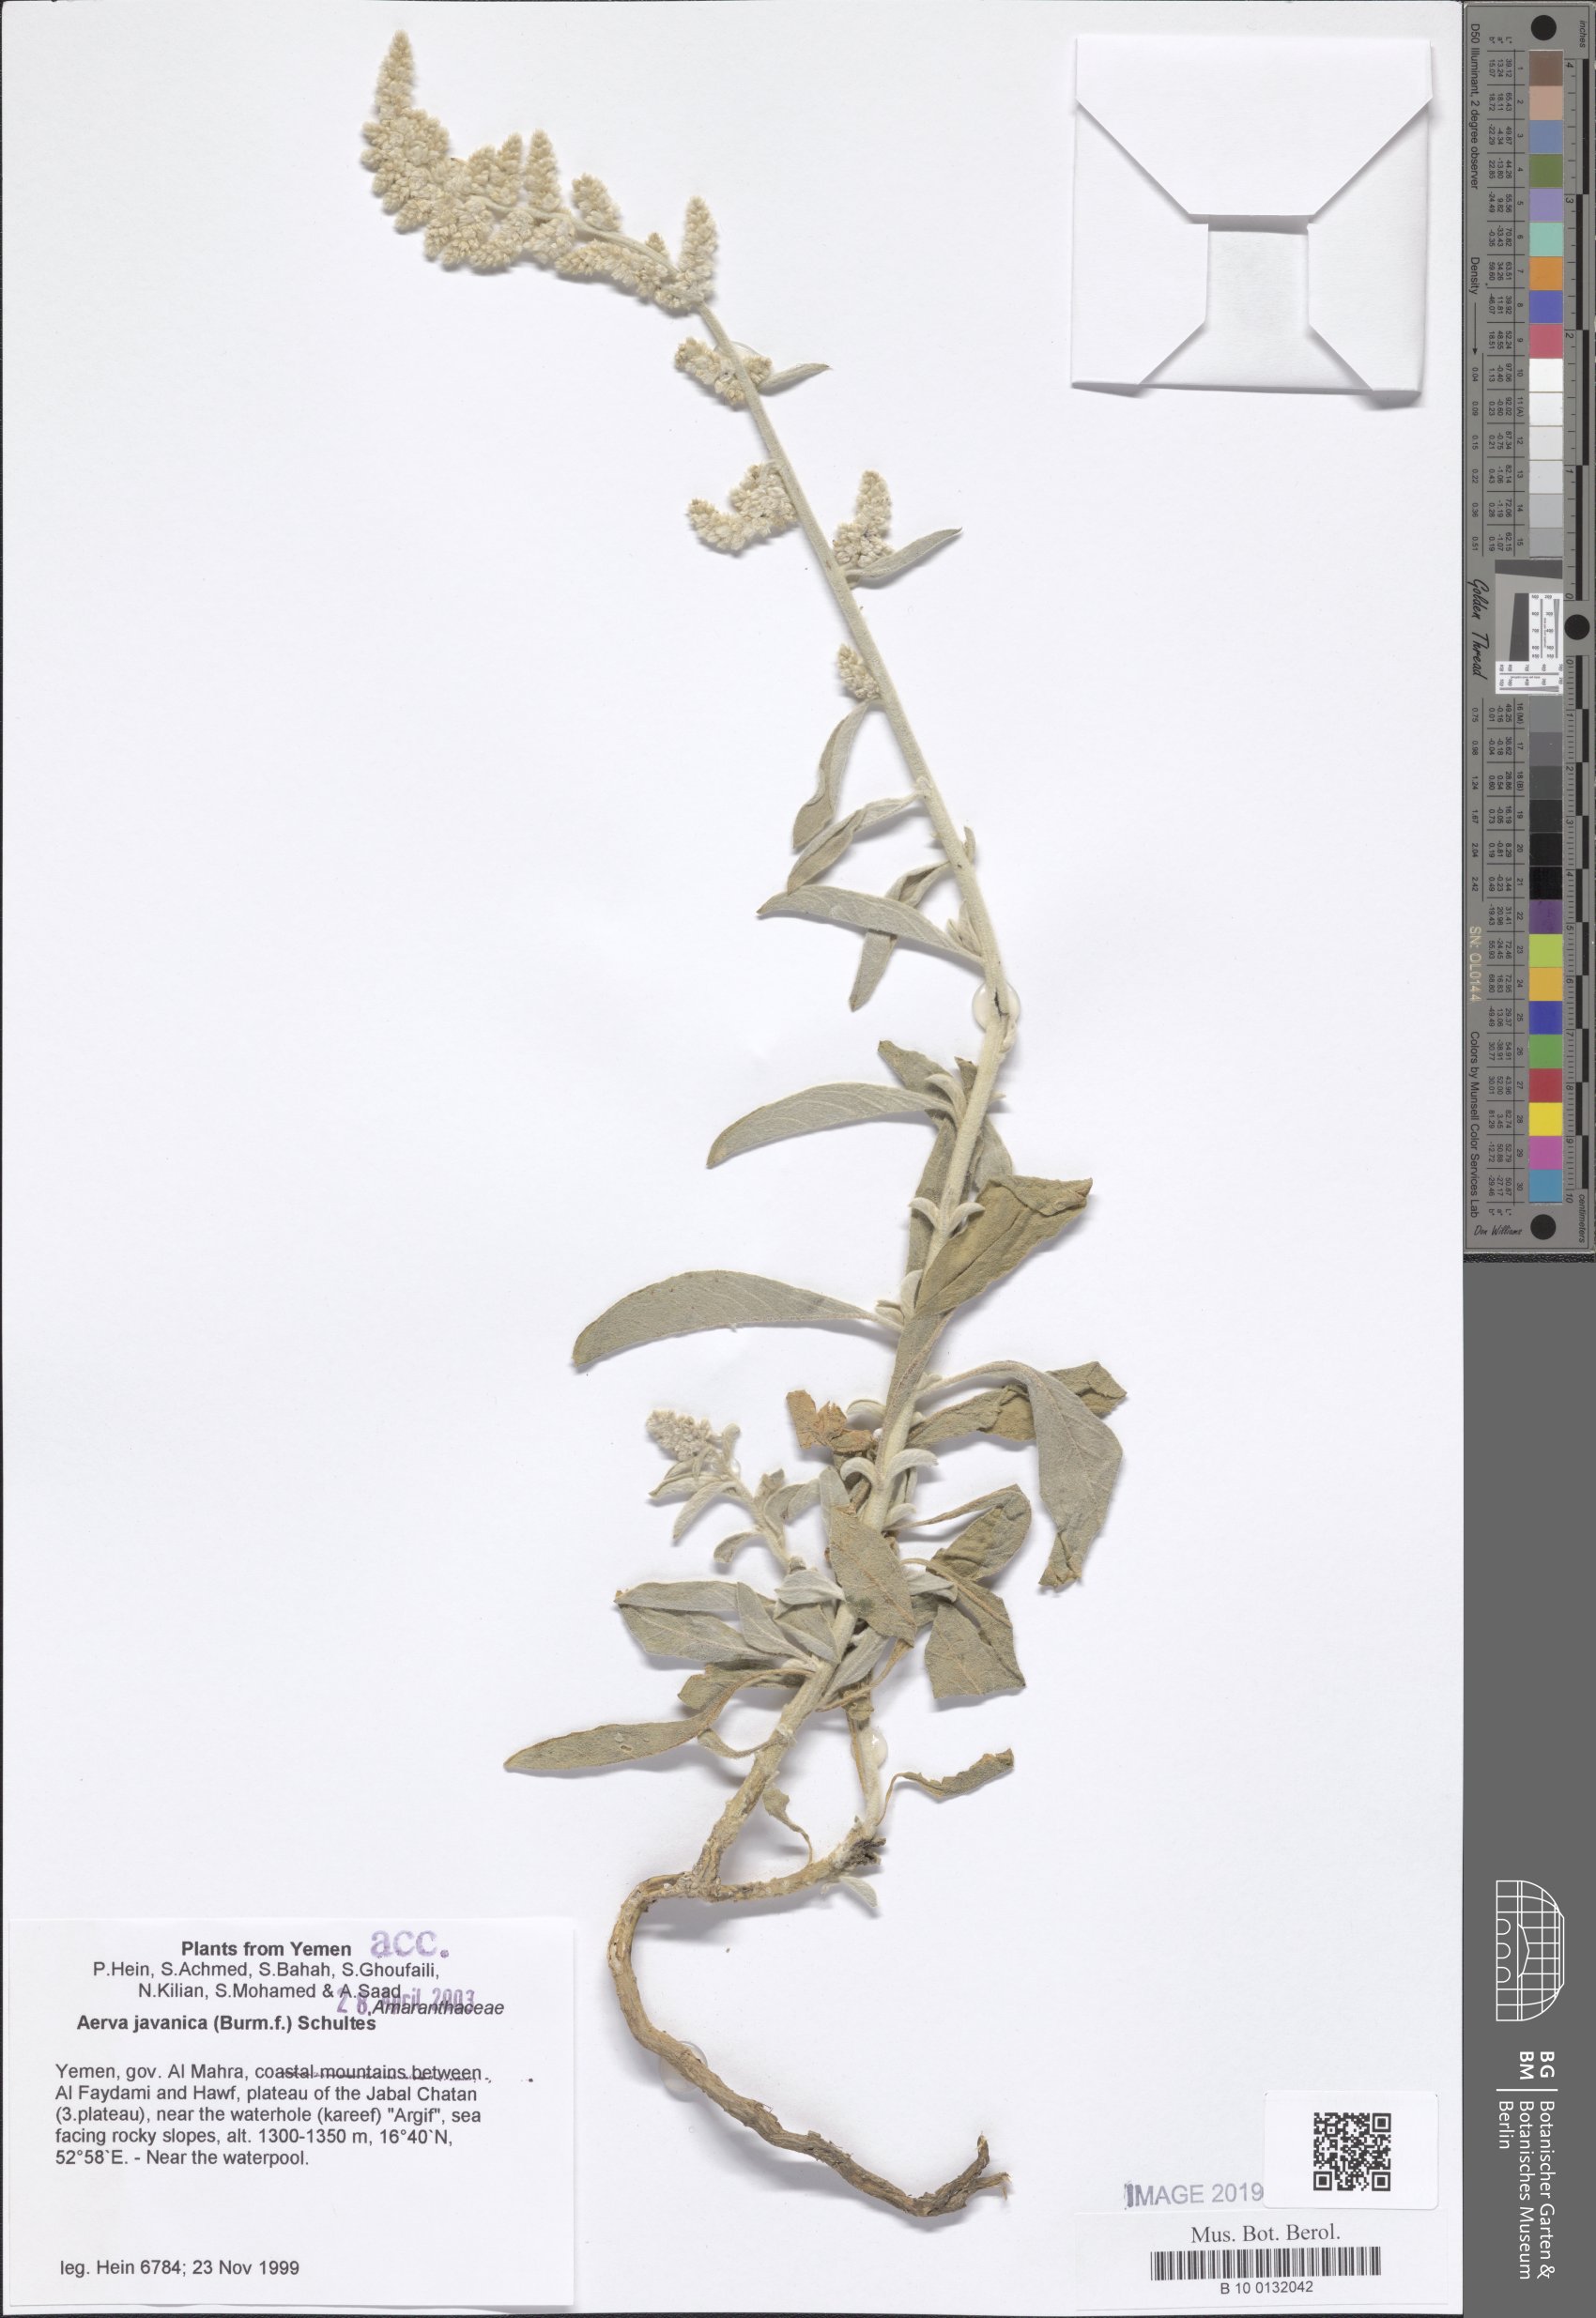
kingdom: Plantae
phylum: Tracheophyta
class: Magnoliopsida
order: Caryophyllales
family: Amaranthaceae
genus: Aerva
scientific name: Aerva javanica
